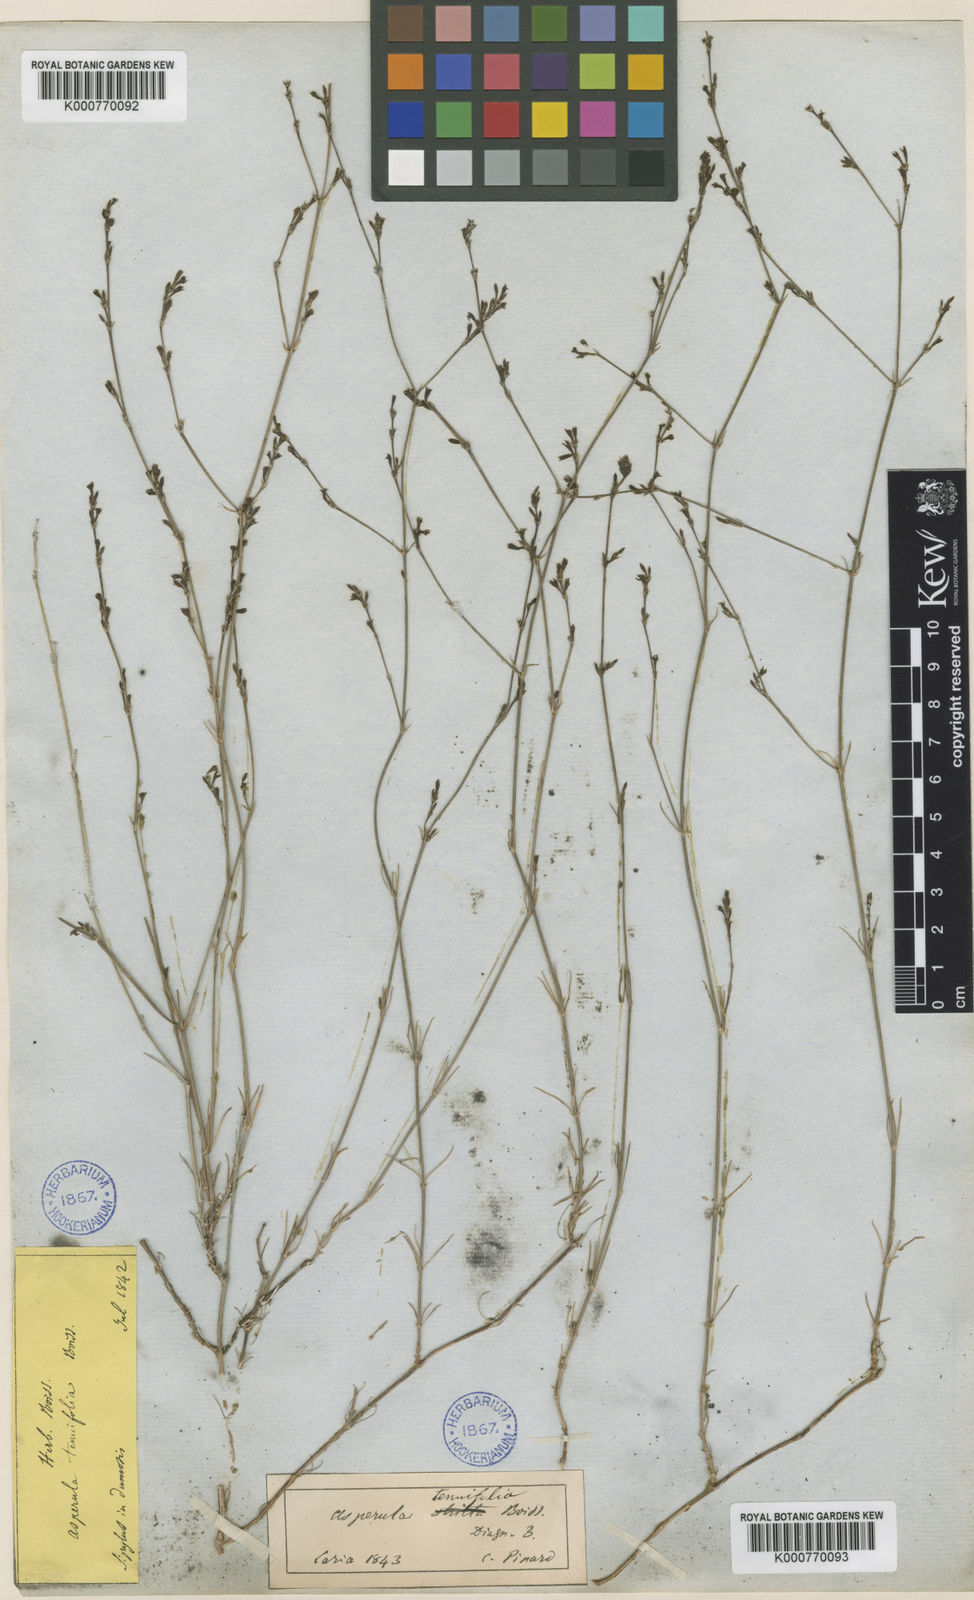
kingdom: Plantae
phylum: Tracheophyta
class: Magnoliopsida
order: Gentianales
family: Rubiaceae
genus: Cynanchica
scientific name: Cynanchica tenuifolia
